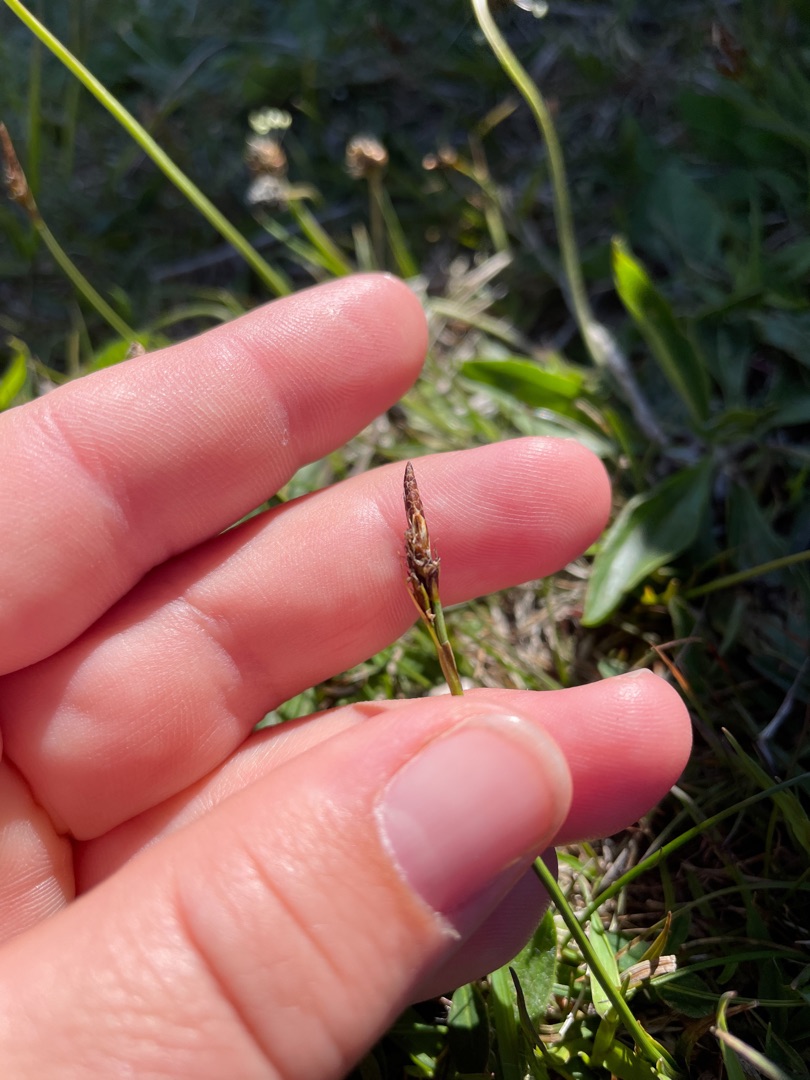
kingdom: Plantae
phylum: Tracheophyta
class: Liliopsida
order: Poales
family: Cyperaceae
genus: Carex
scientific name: Carex caryophyllea
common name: Vår-star
